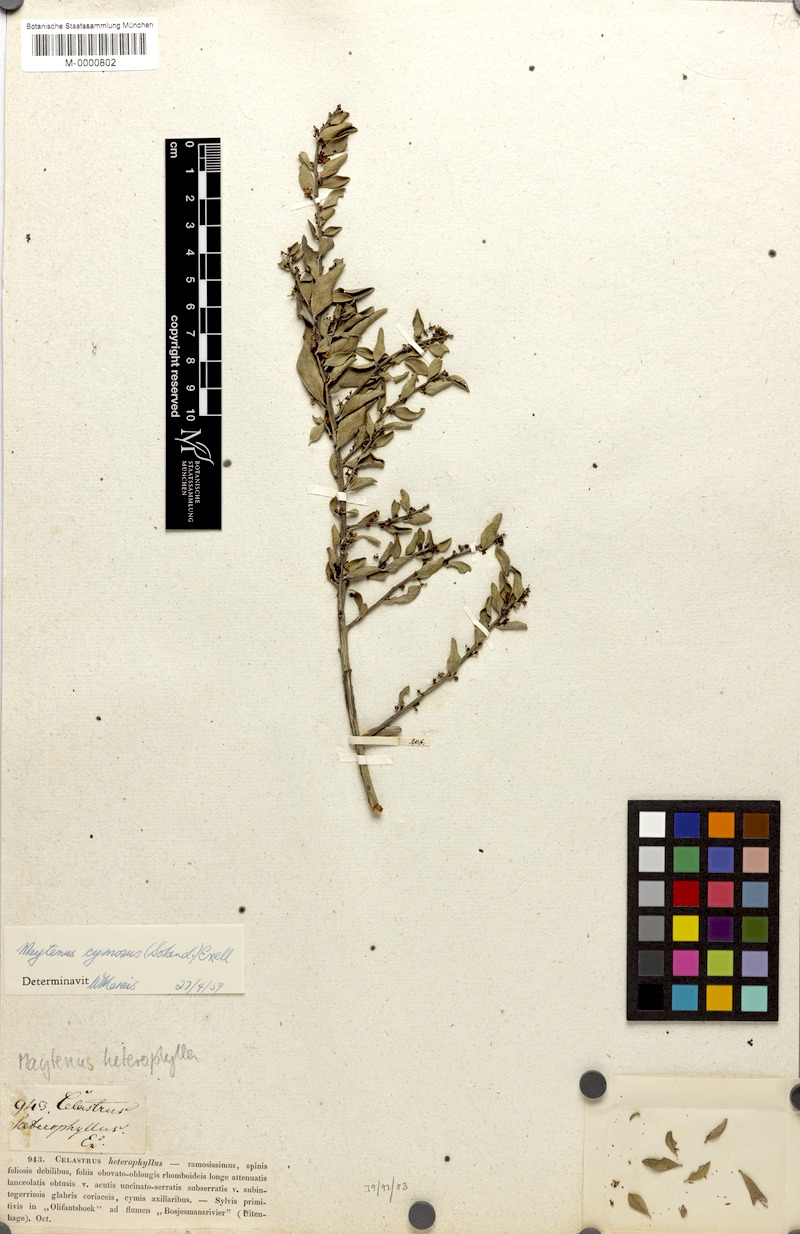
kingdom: Plantae
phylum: Tracheophyta
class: Magnoliopsida
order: Celastrales
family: Celastraceae
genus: Gymnosporia
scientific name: Gymnosporia heterophylla
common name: Angle-stem spikethorn
